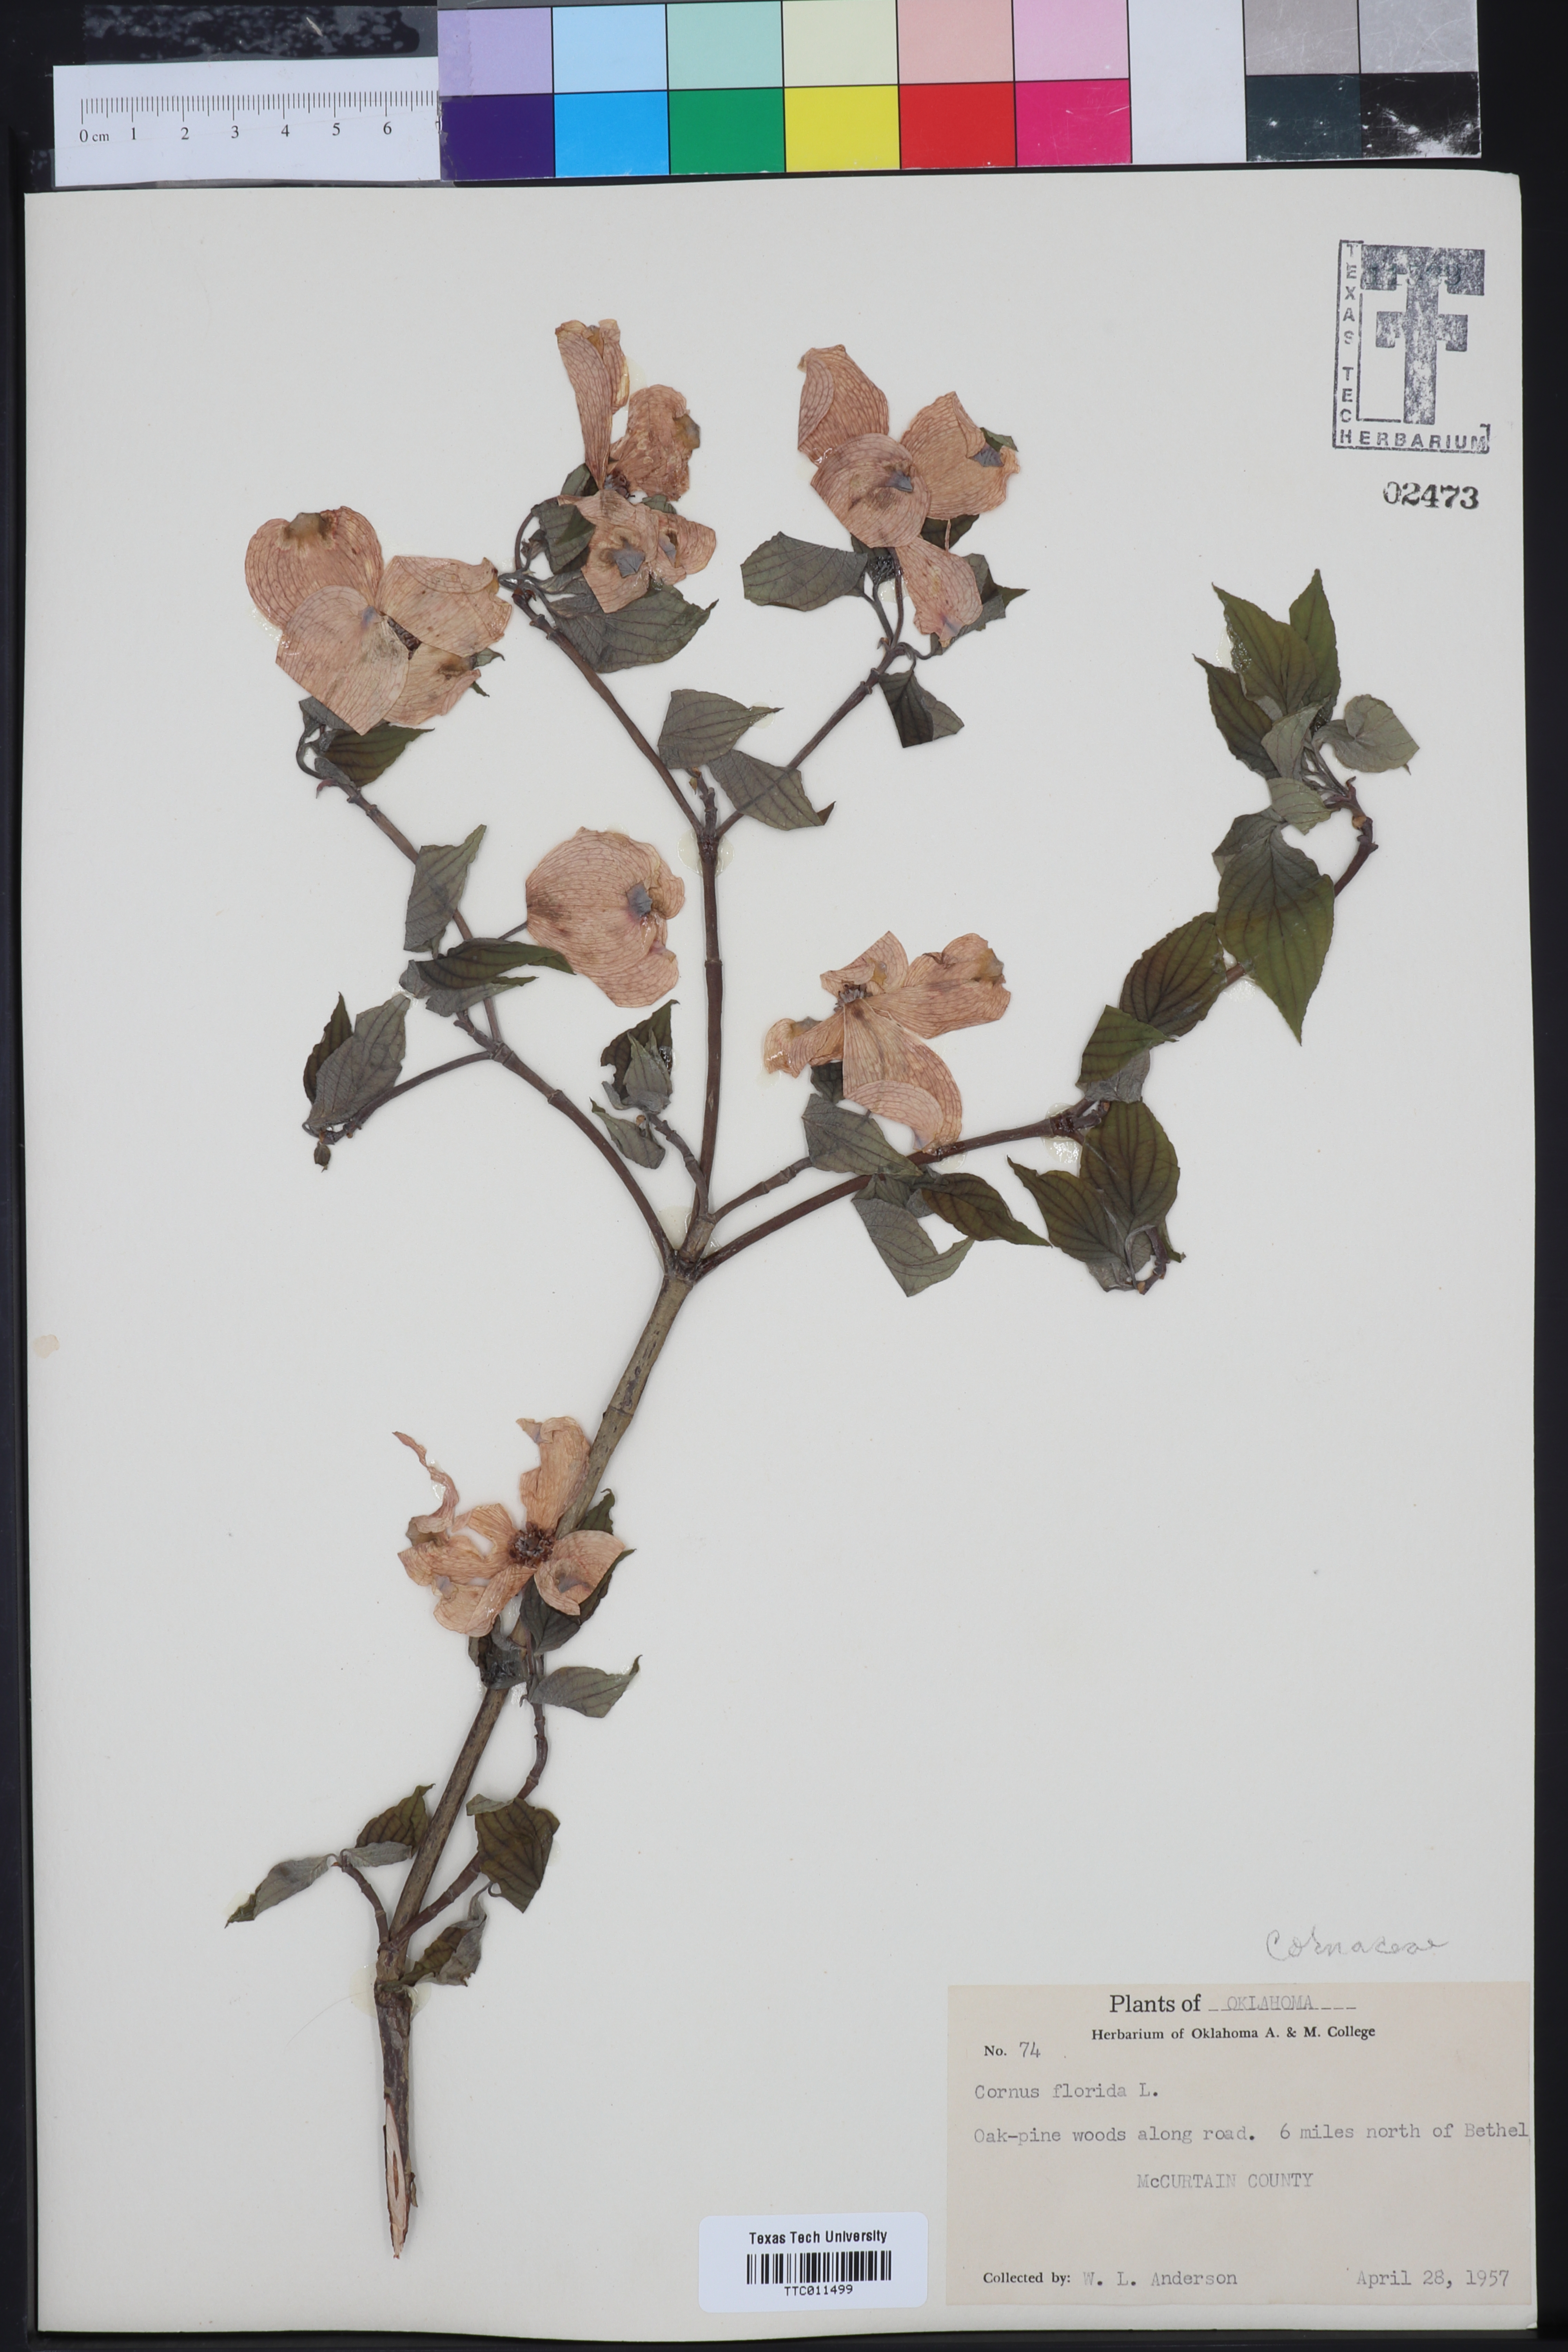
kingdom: Plantae
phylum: Tracheophyta
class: Magnoliopsida
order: Cornales
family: Cornaceae
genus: Cornus
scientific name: Cornus florida
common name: Flowering dogwood
